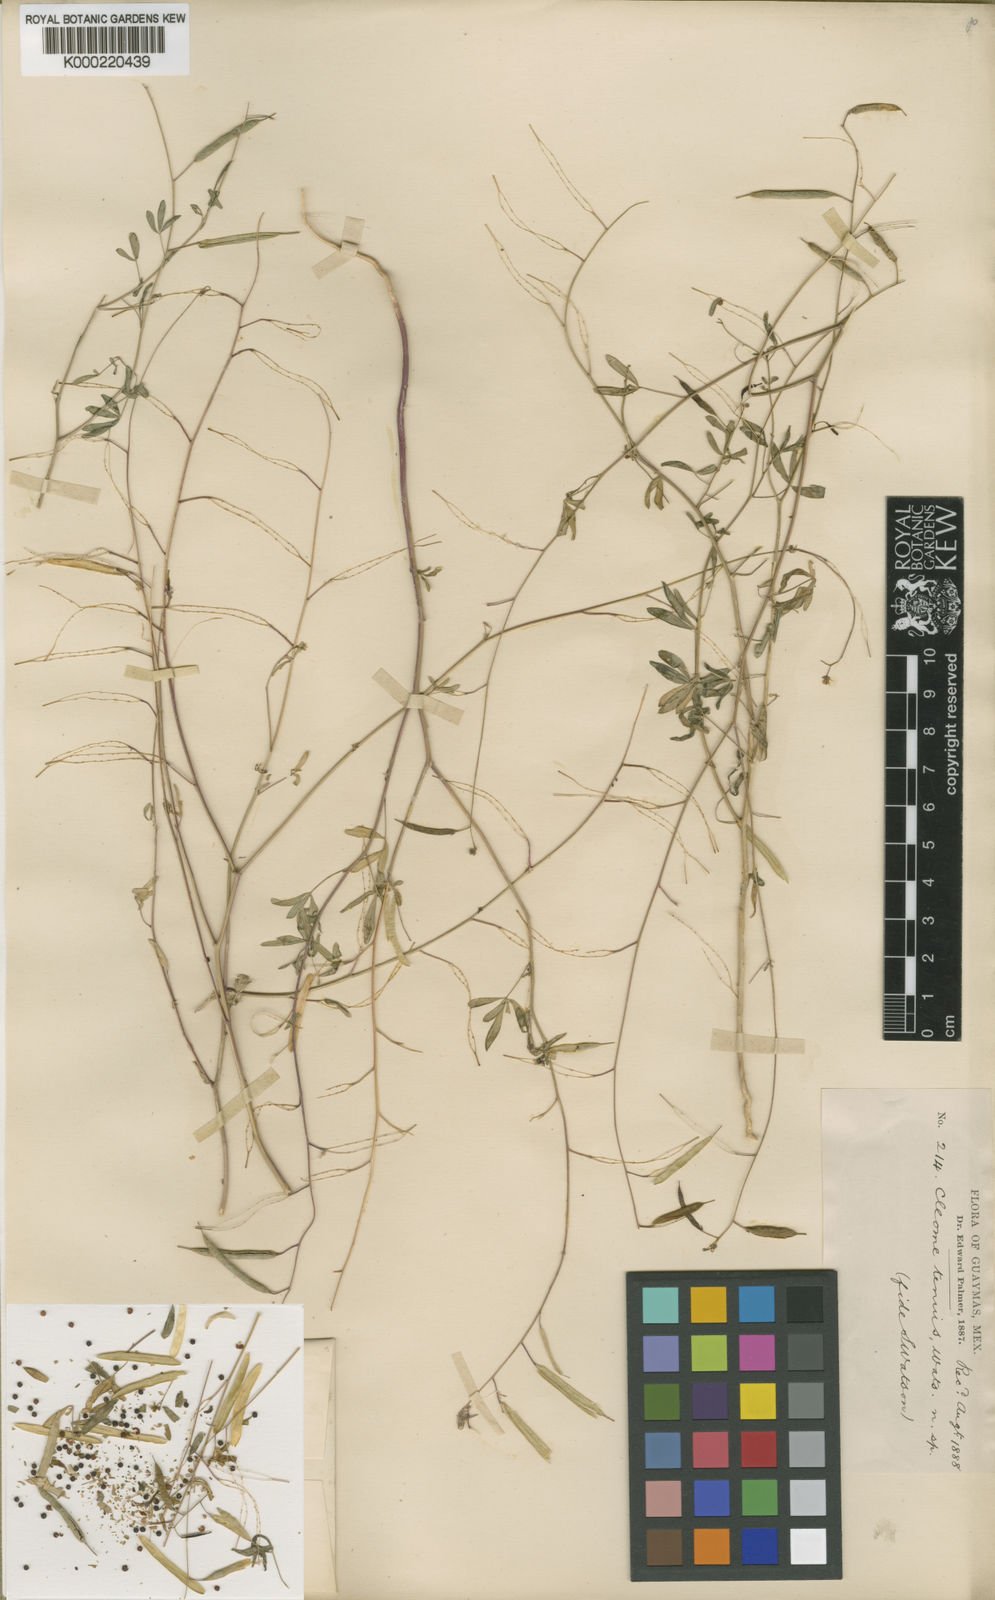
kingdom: Plantae
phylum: Tracheophyta
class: Magnoliopsida
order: Brassicales
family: Cleomaceae
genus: Iltisiella
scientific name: Iltisiella tenuis
